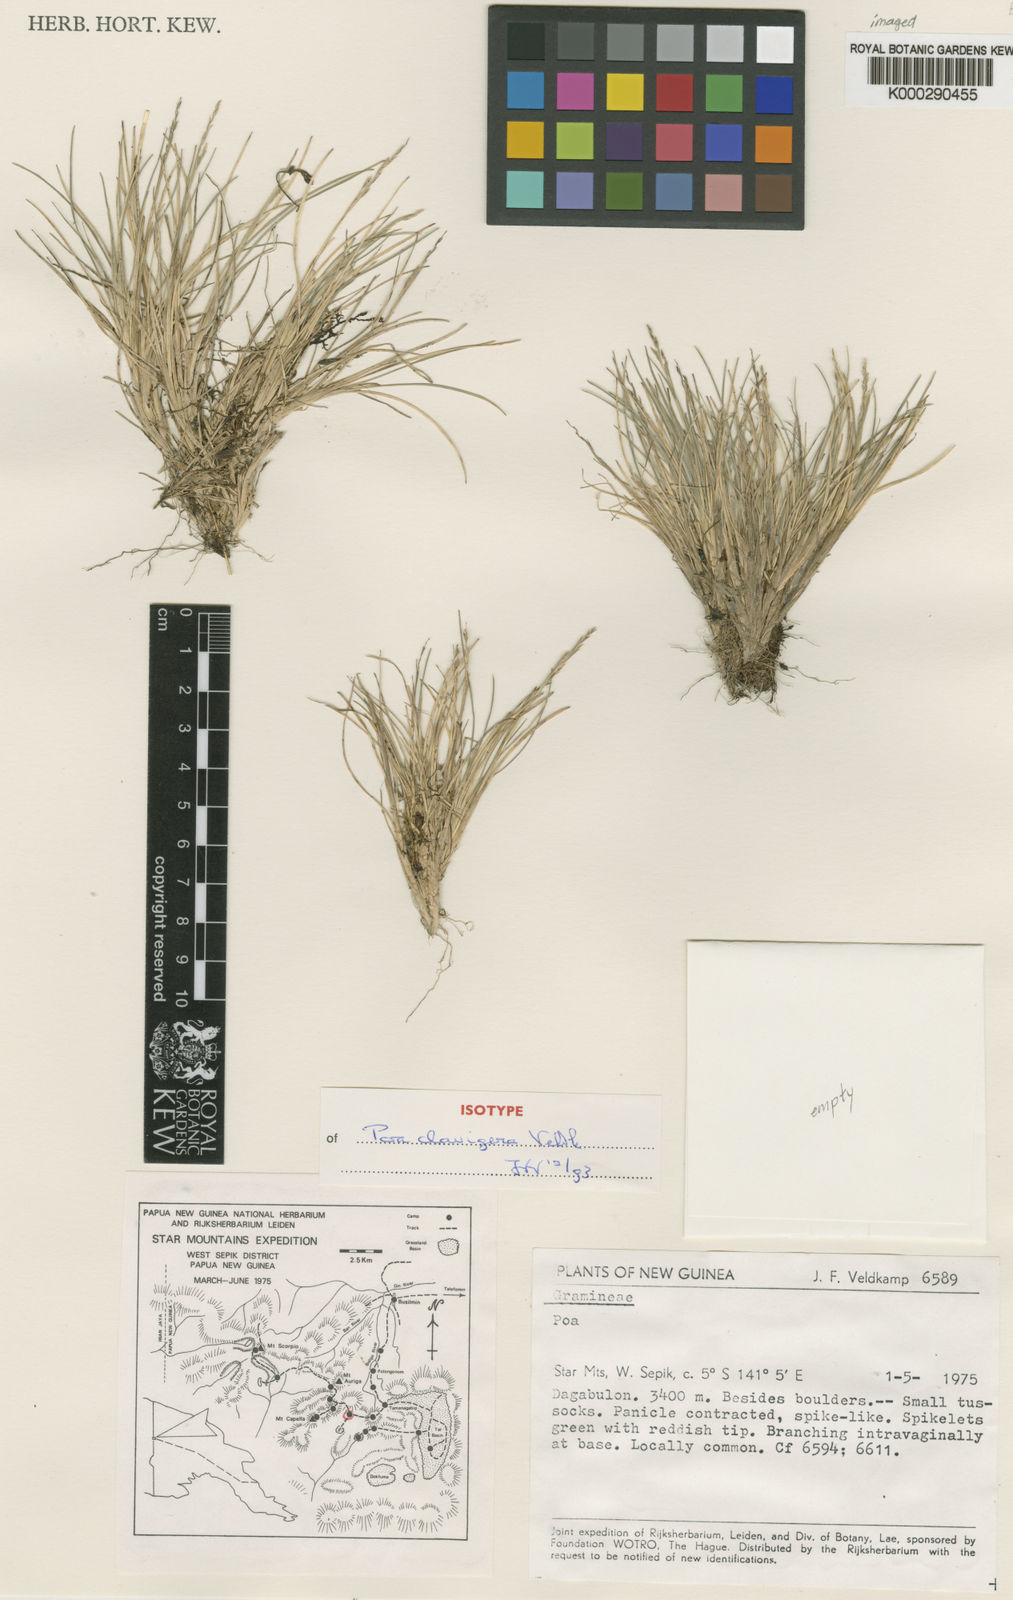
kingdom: Plantae
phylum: Tracheophyta
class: Liliopsida
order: Poales
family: Poaceae
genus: Poa
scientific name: Poa clavigera
